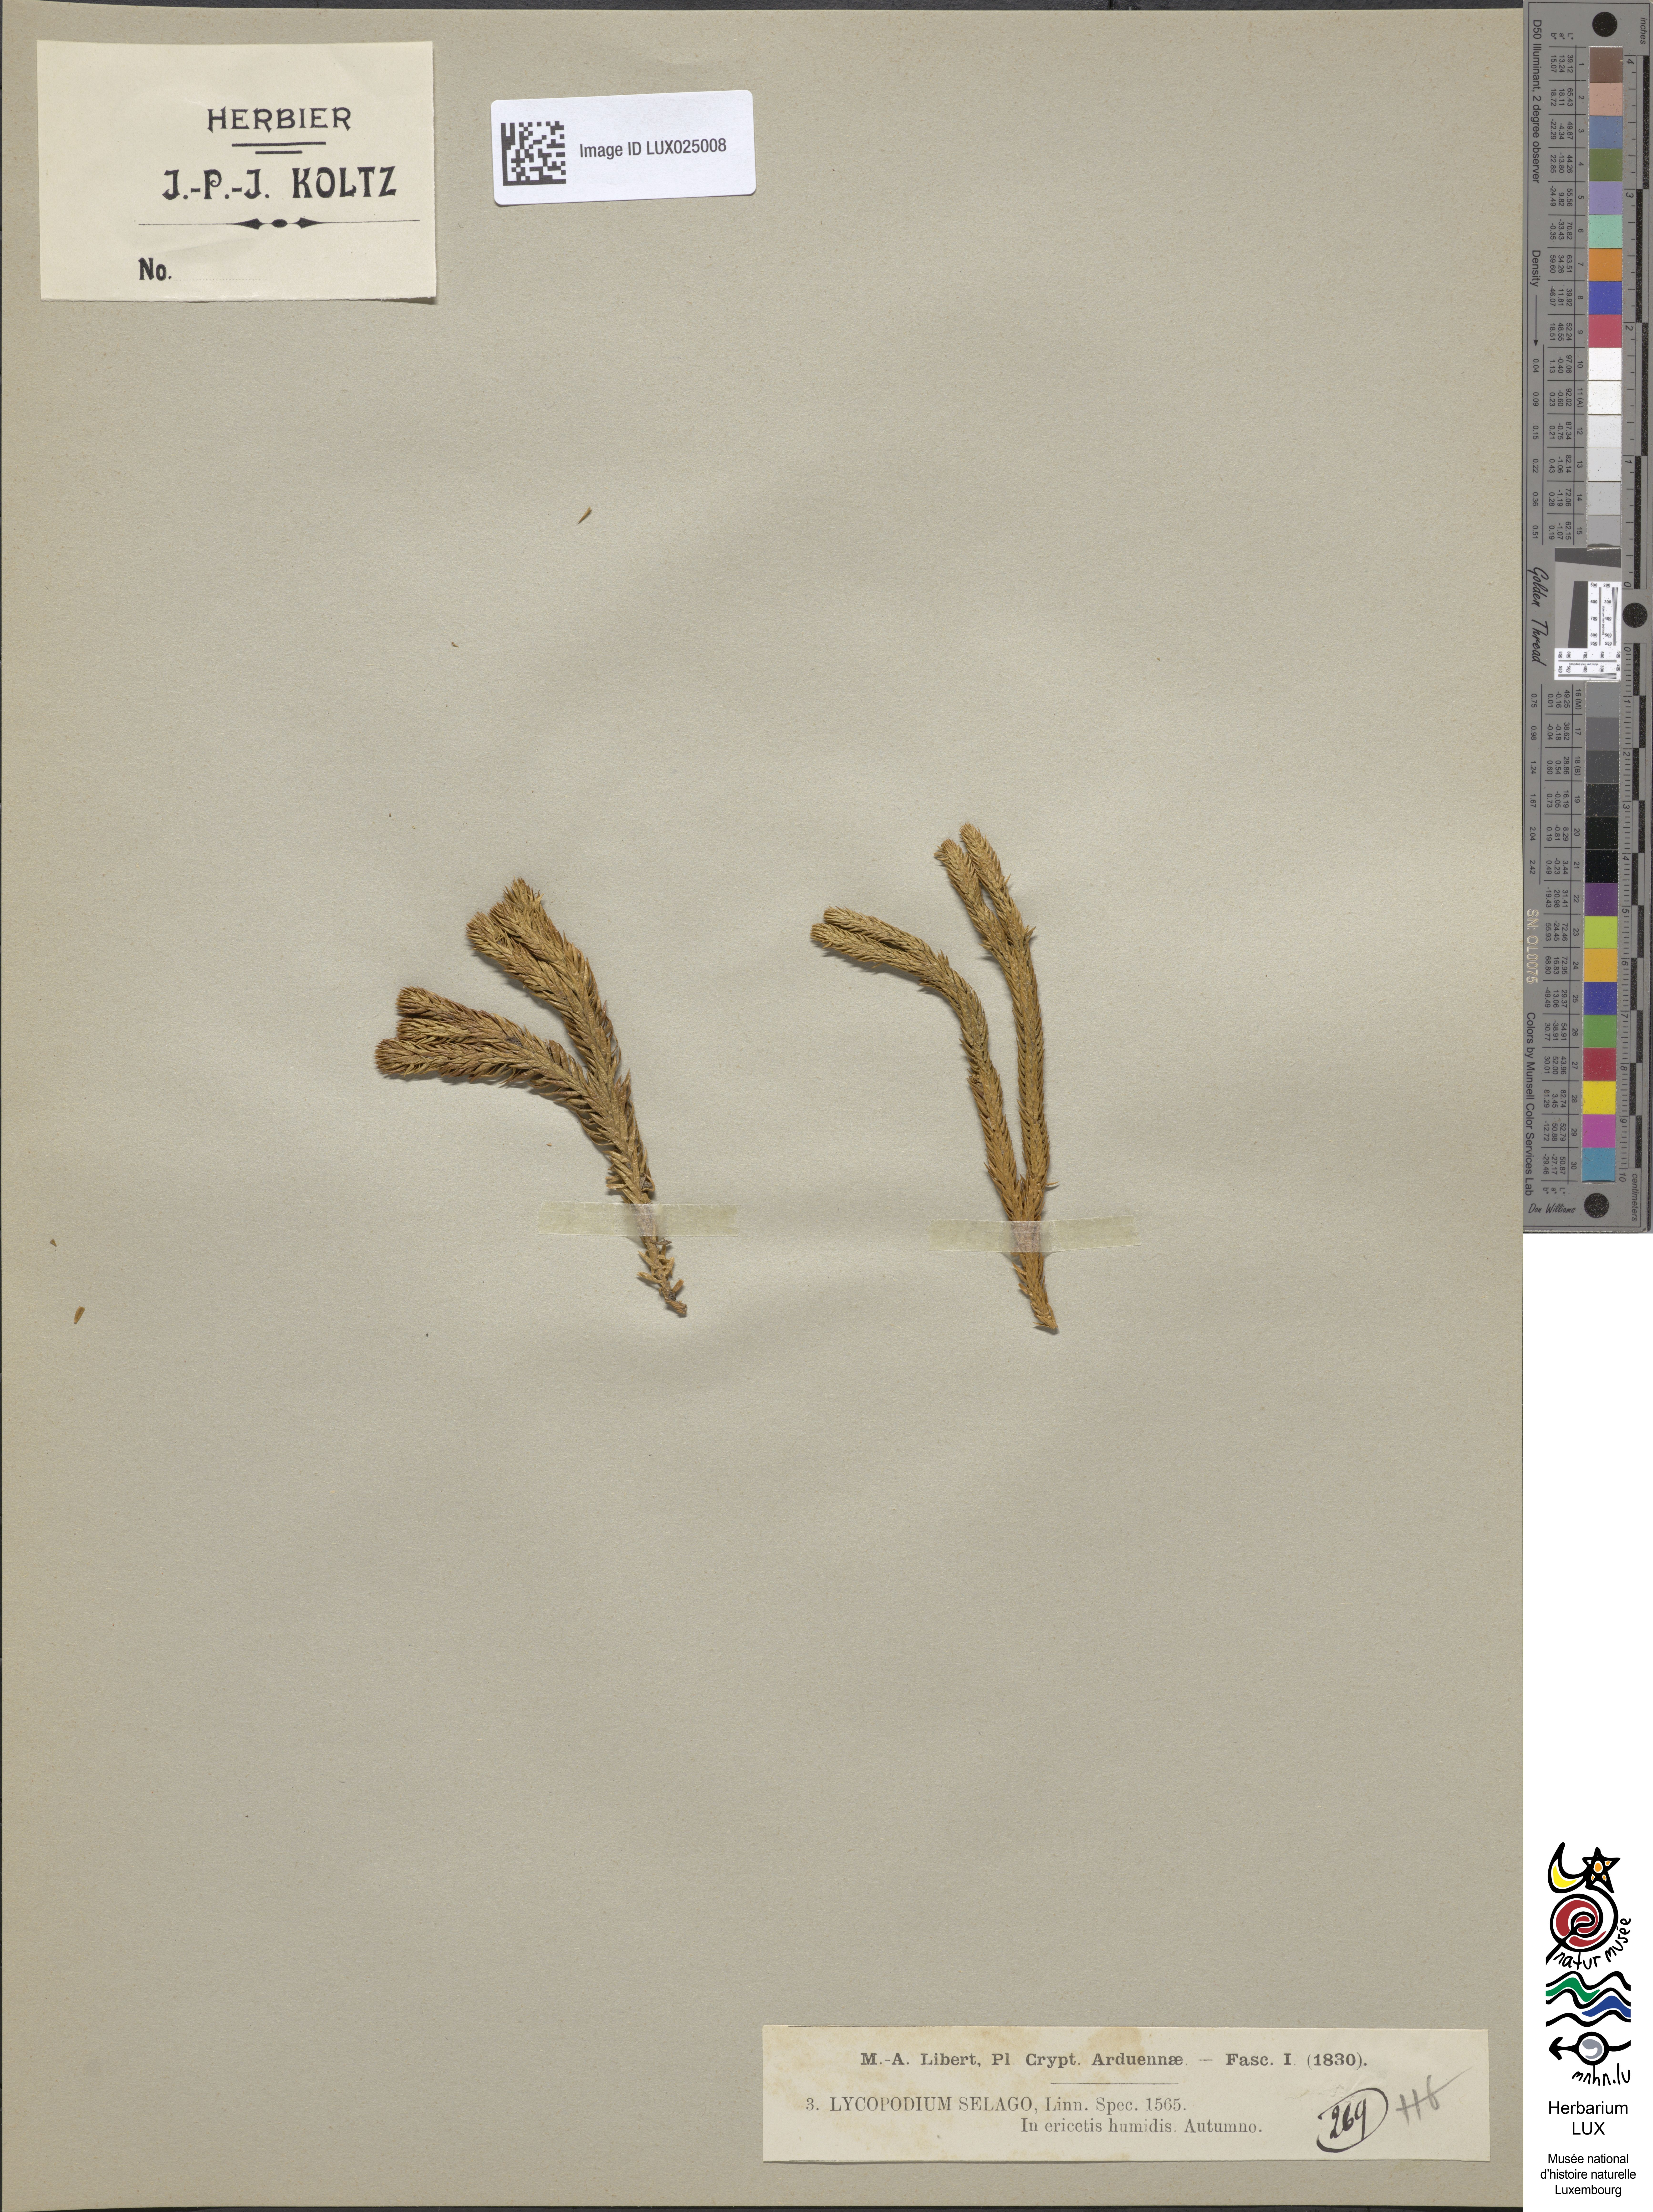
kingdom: Plantae
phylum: Tracheophyta
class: Lycopodiopsida
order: Lycopodiales
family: Lycopodiaceae
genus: Huperzia
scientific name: Huperzia selago
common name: Northern firmoss
